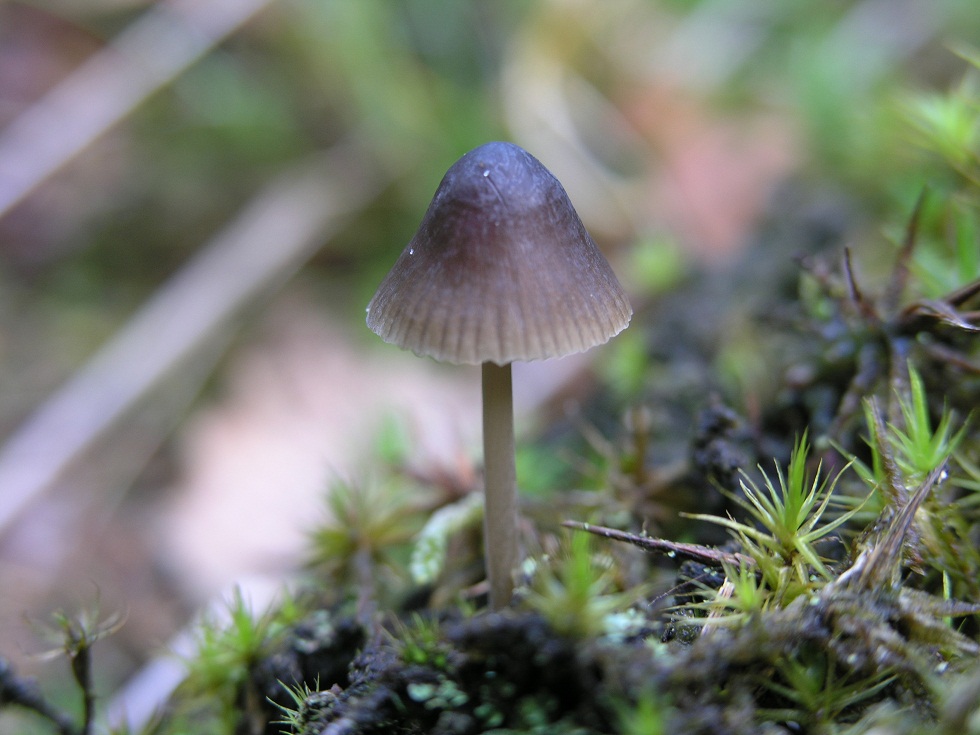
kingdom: Fungi
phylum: Basidiomycota
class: Agaricomycetes
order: Agaricales
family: Mycenaceae
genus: Mycena
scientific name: Mycena megaspora
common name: brusk-huesvamp
